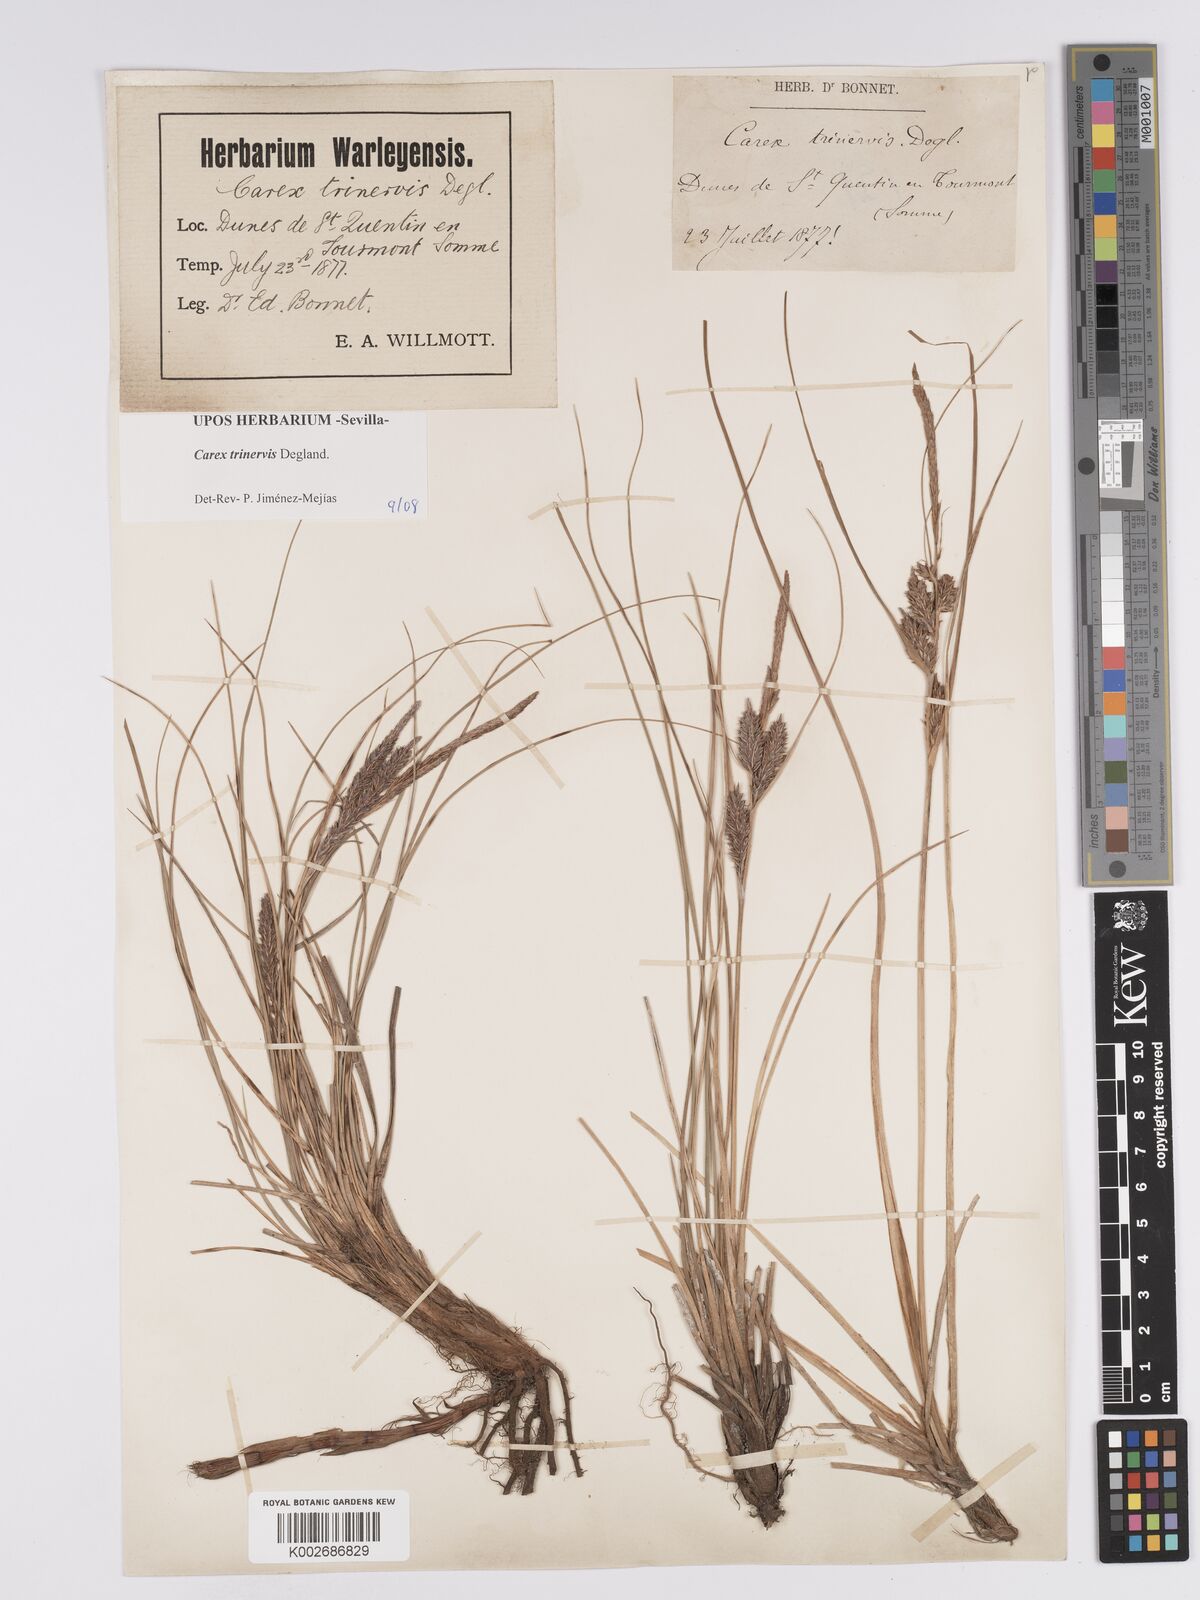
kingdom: Plantae
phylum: Tracheophyta
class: Liliopsida
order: Poales
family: Cyperaceae
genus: Carex
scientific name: Carex trinervis
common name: Three-nerved sedge
